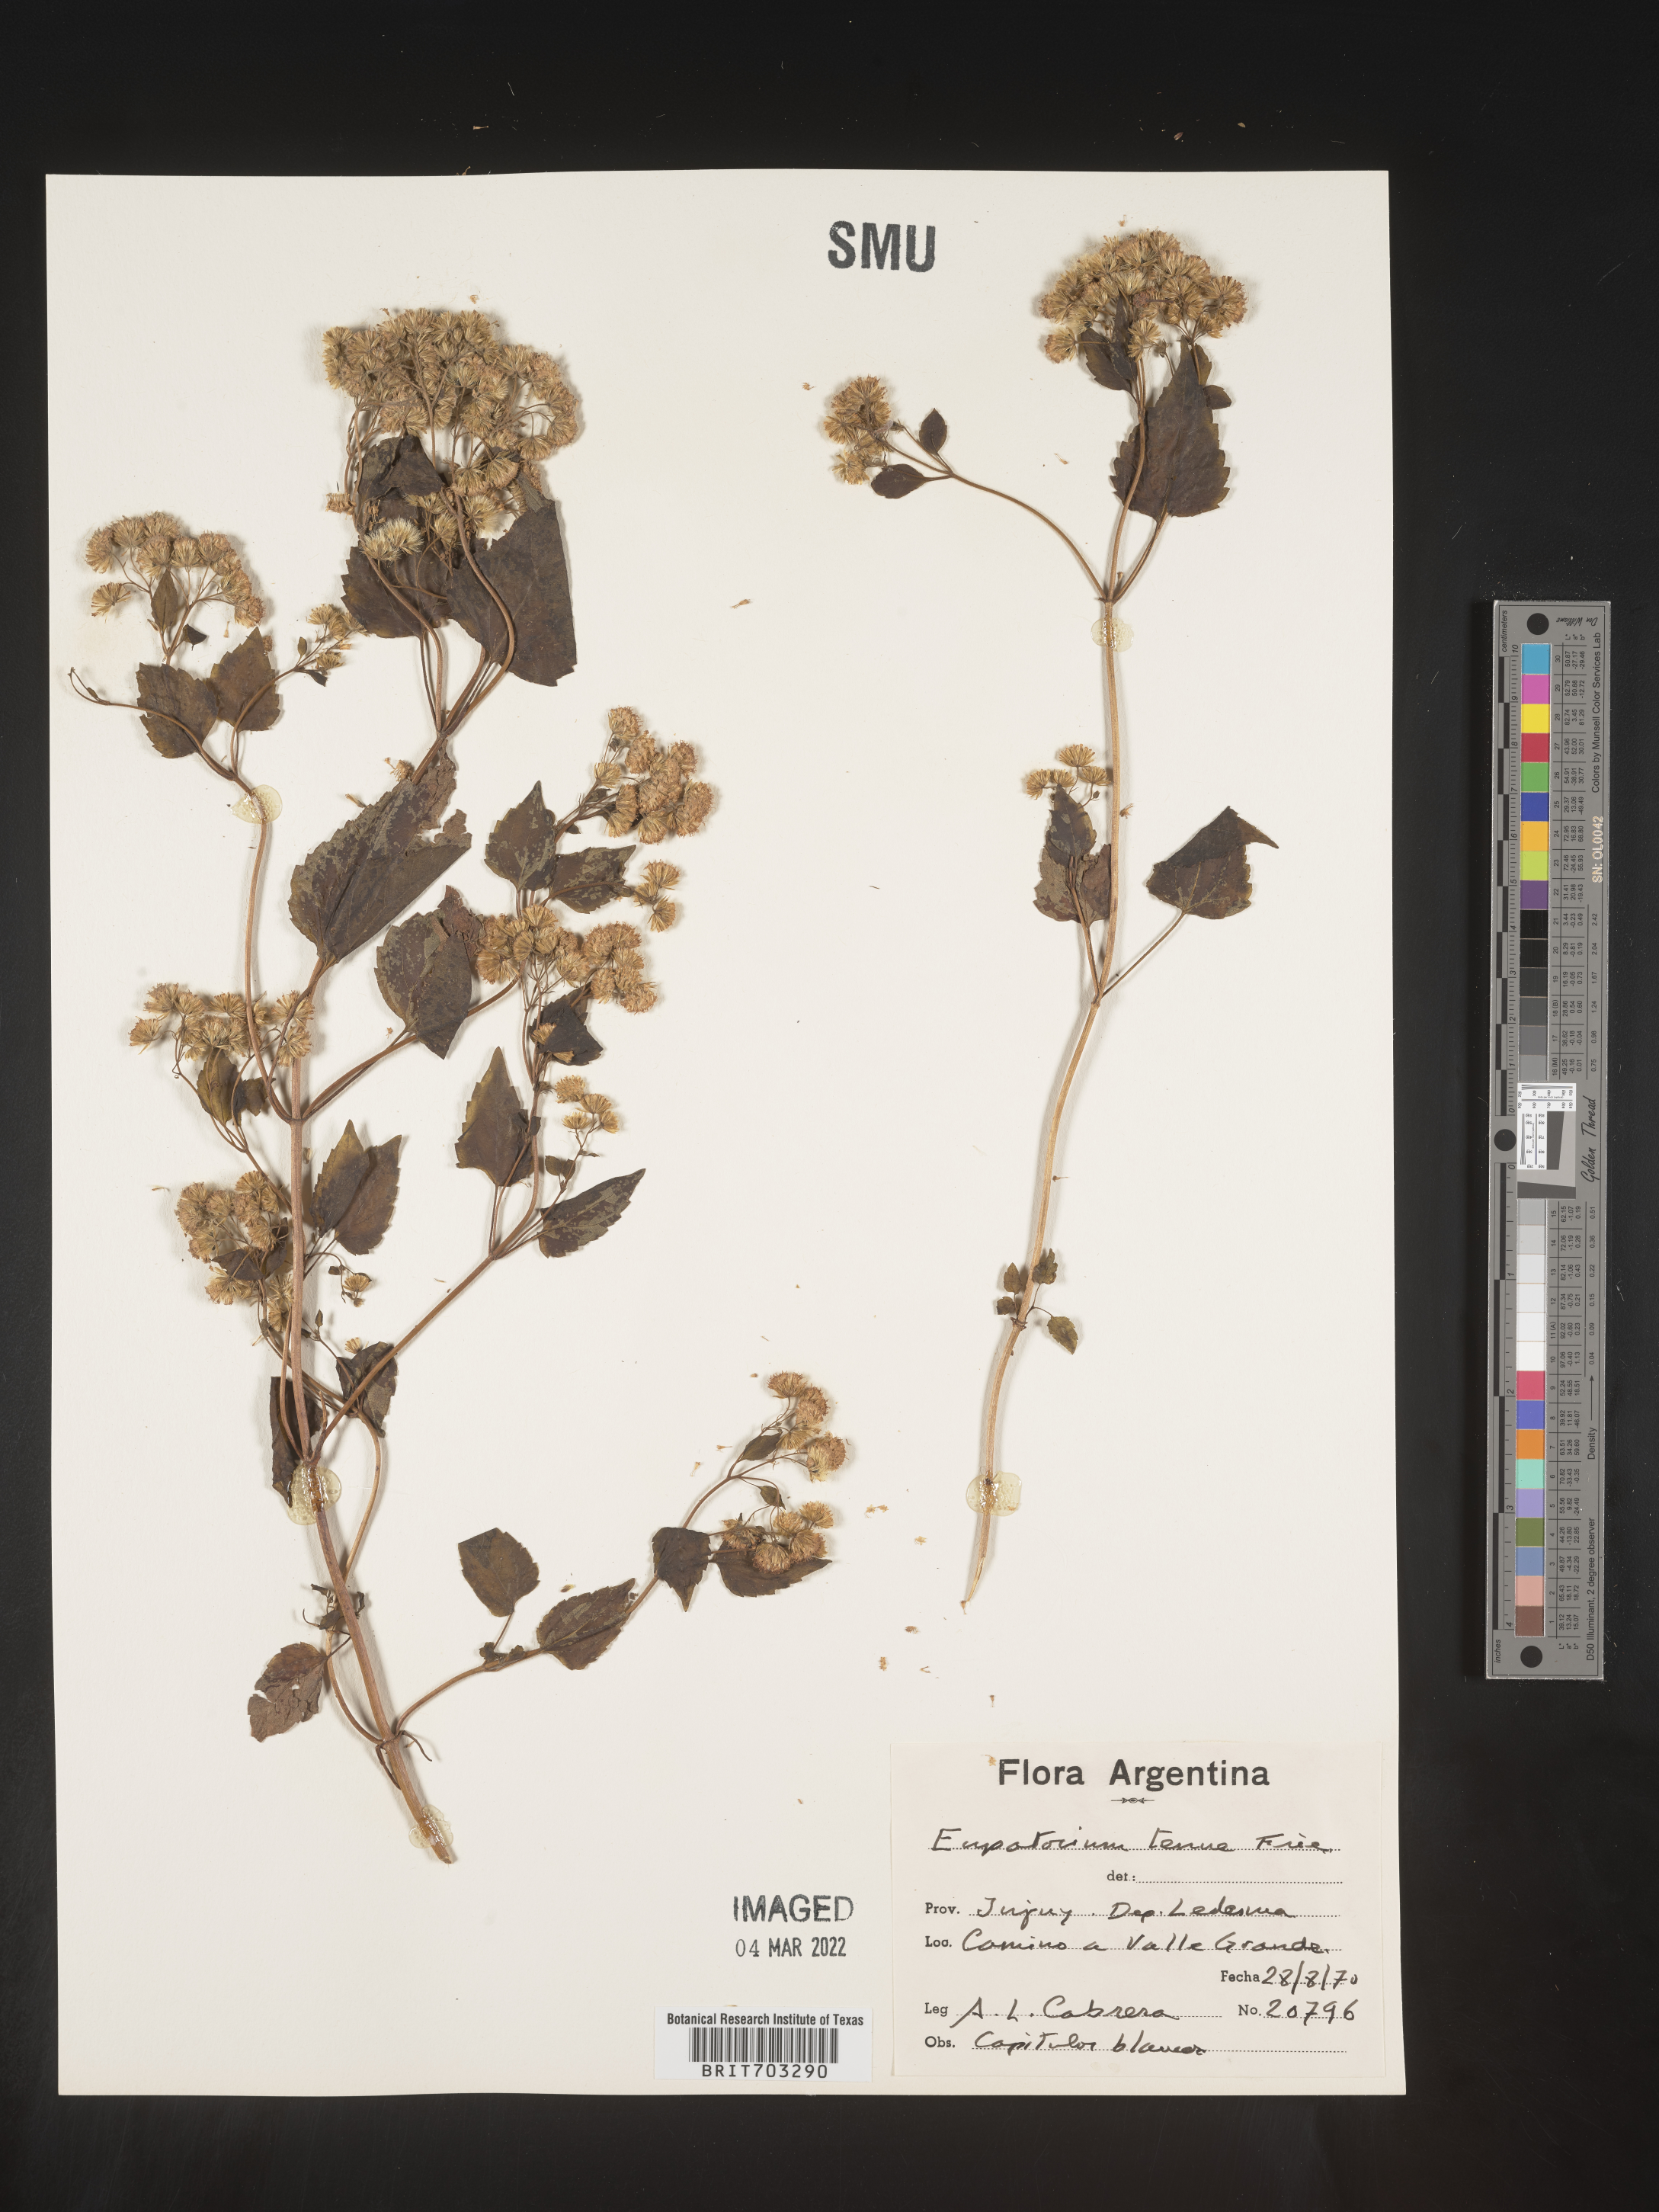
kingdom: Plantae
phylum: Tracheophyta
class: Magnoliopsida
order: Asterales
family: Asteraceae
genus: Eupatorium
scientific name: Eupatorium
